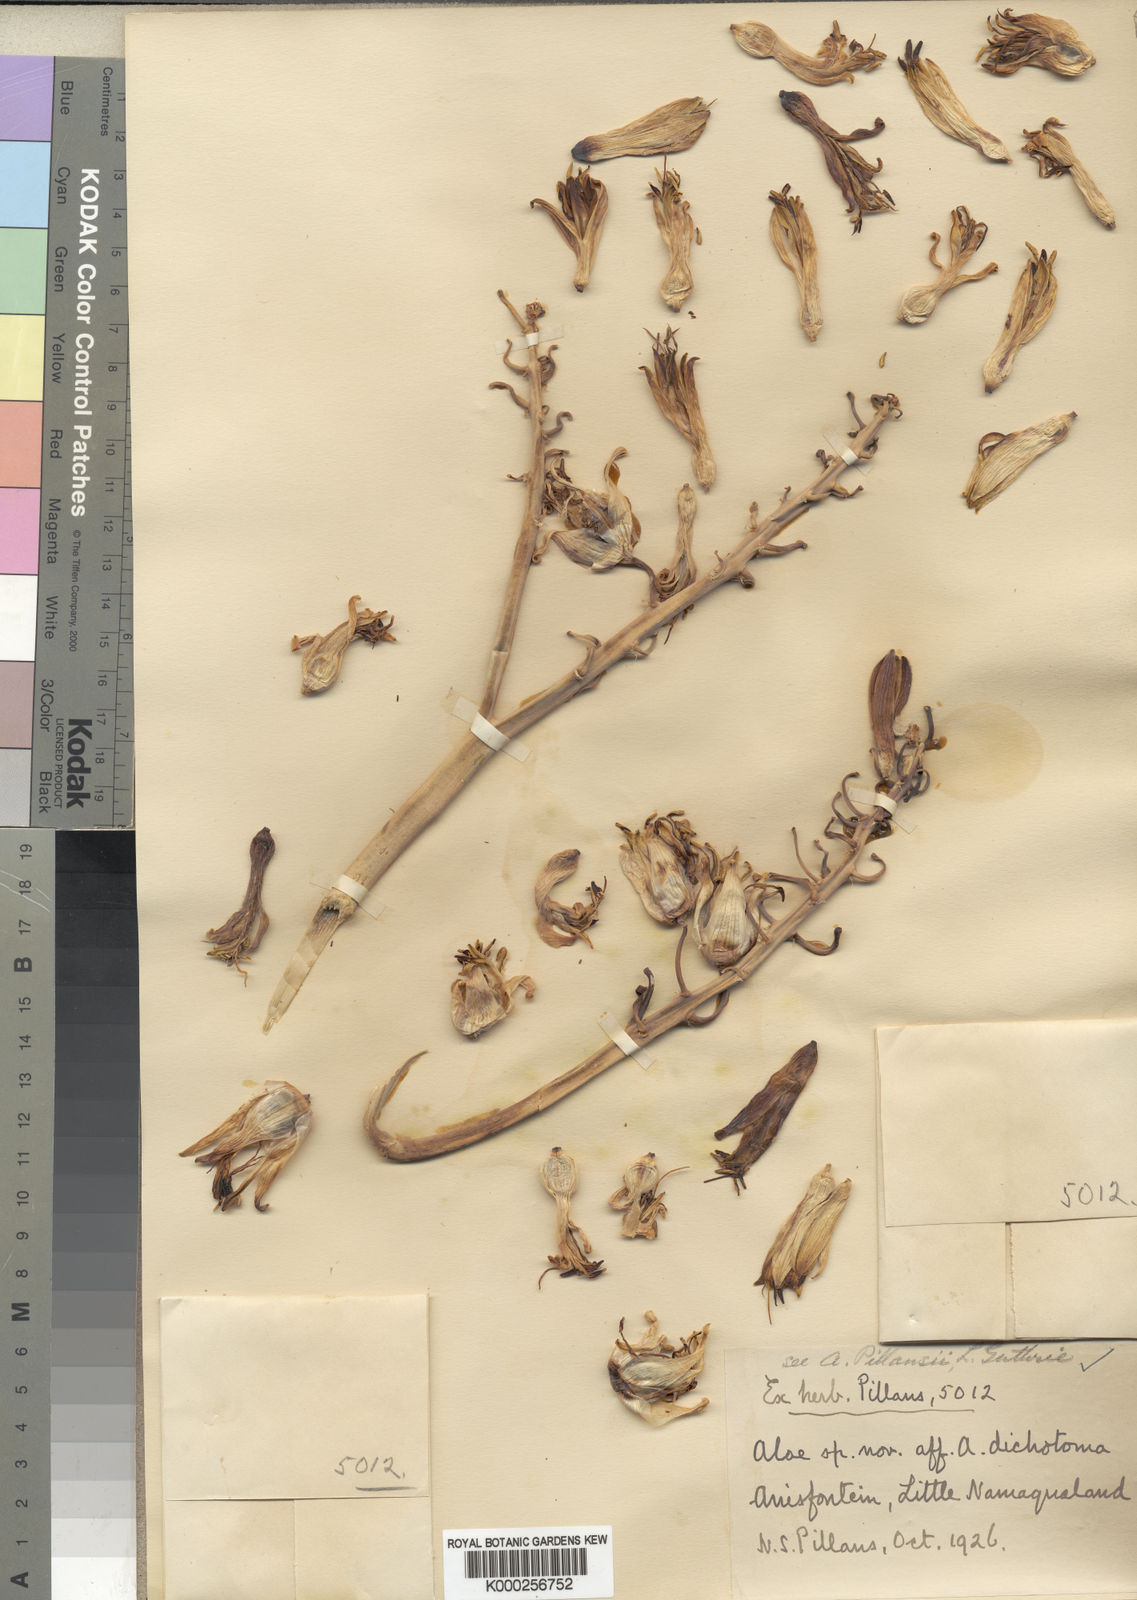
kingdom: Plantae
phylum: Tracheophyta
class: Liliopsida
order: Asparagales
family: Asphodelaceae
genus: Aloidendron
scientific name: Aloidendron pillansii
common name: Bastard quiver tree
